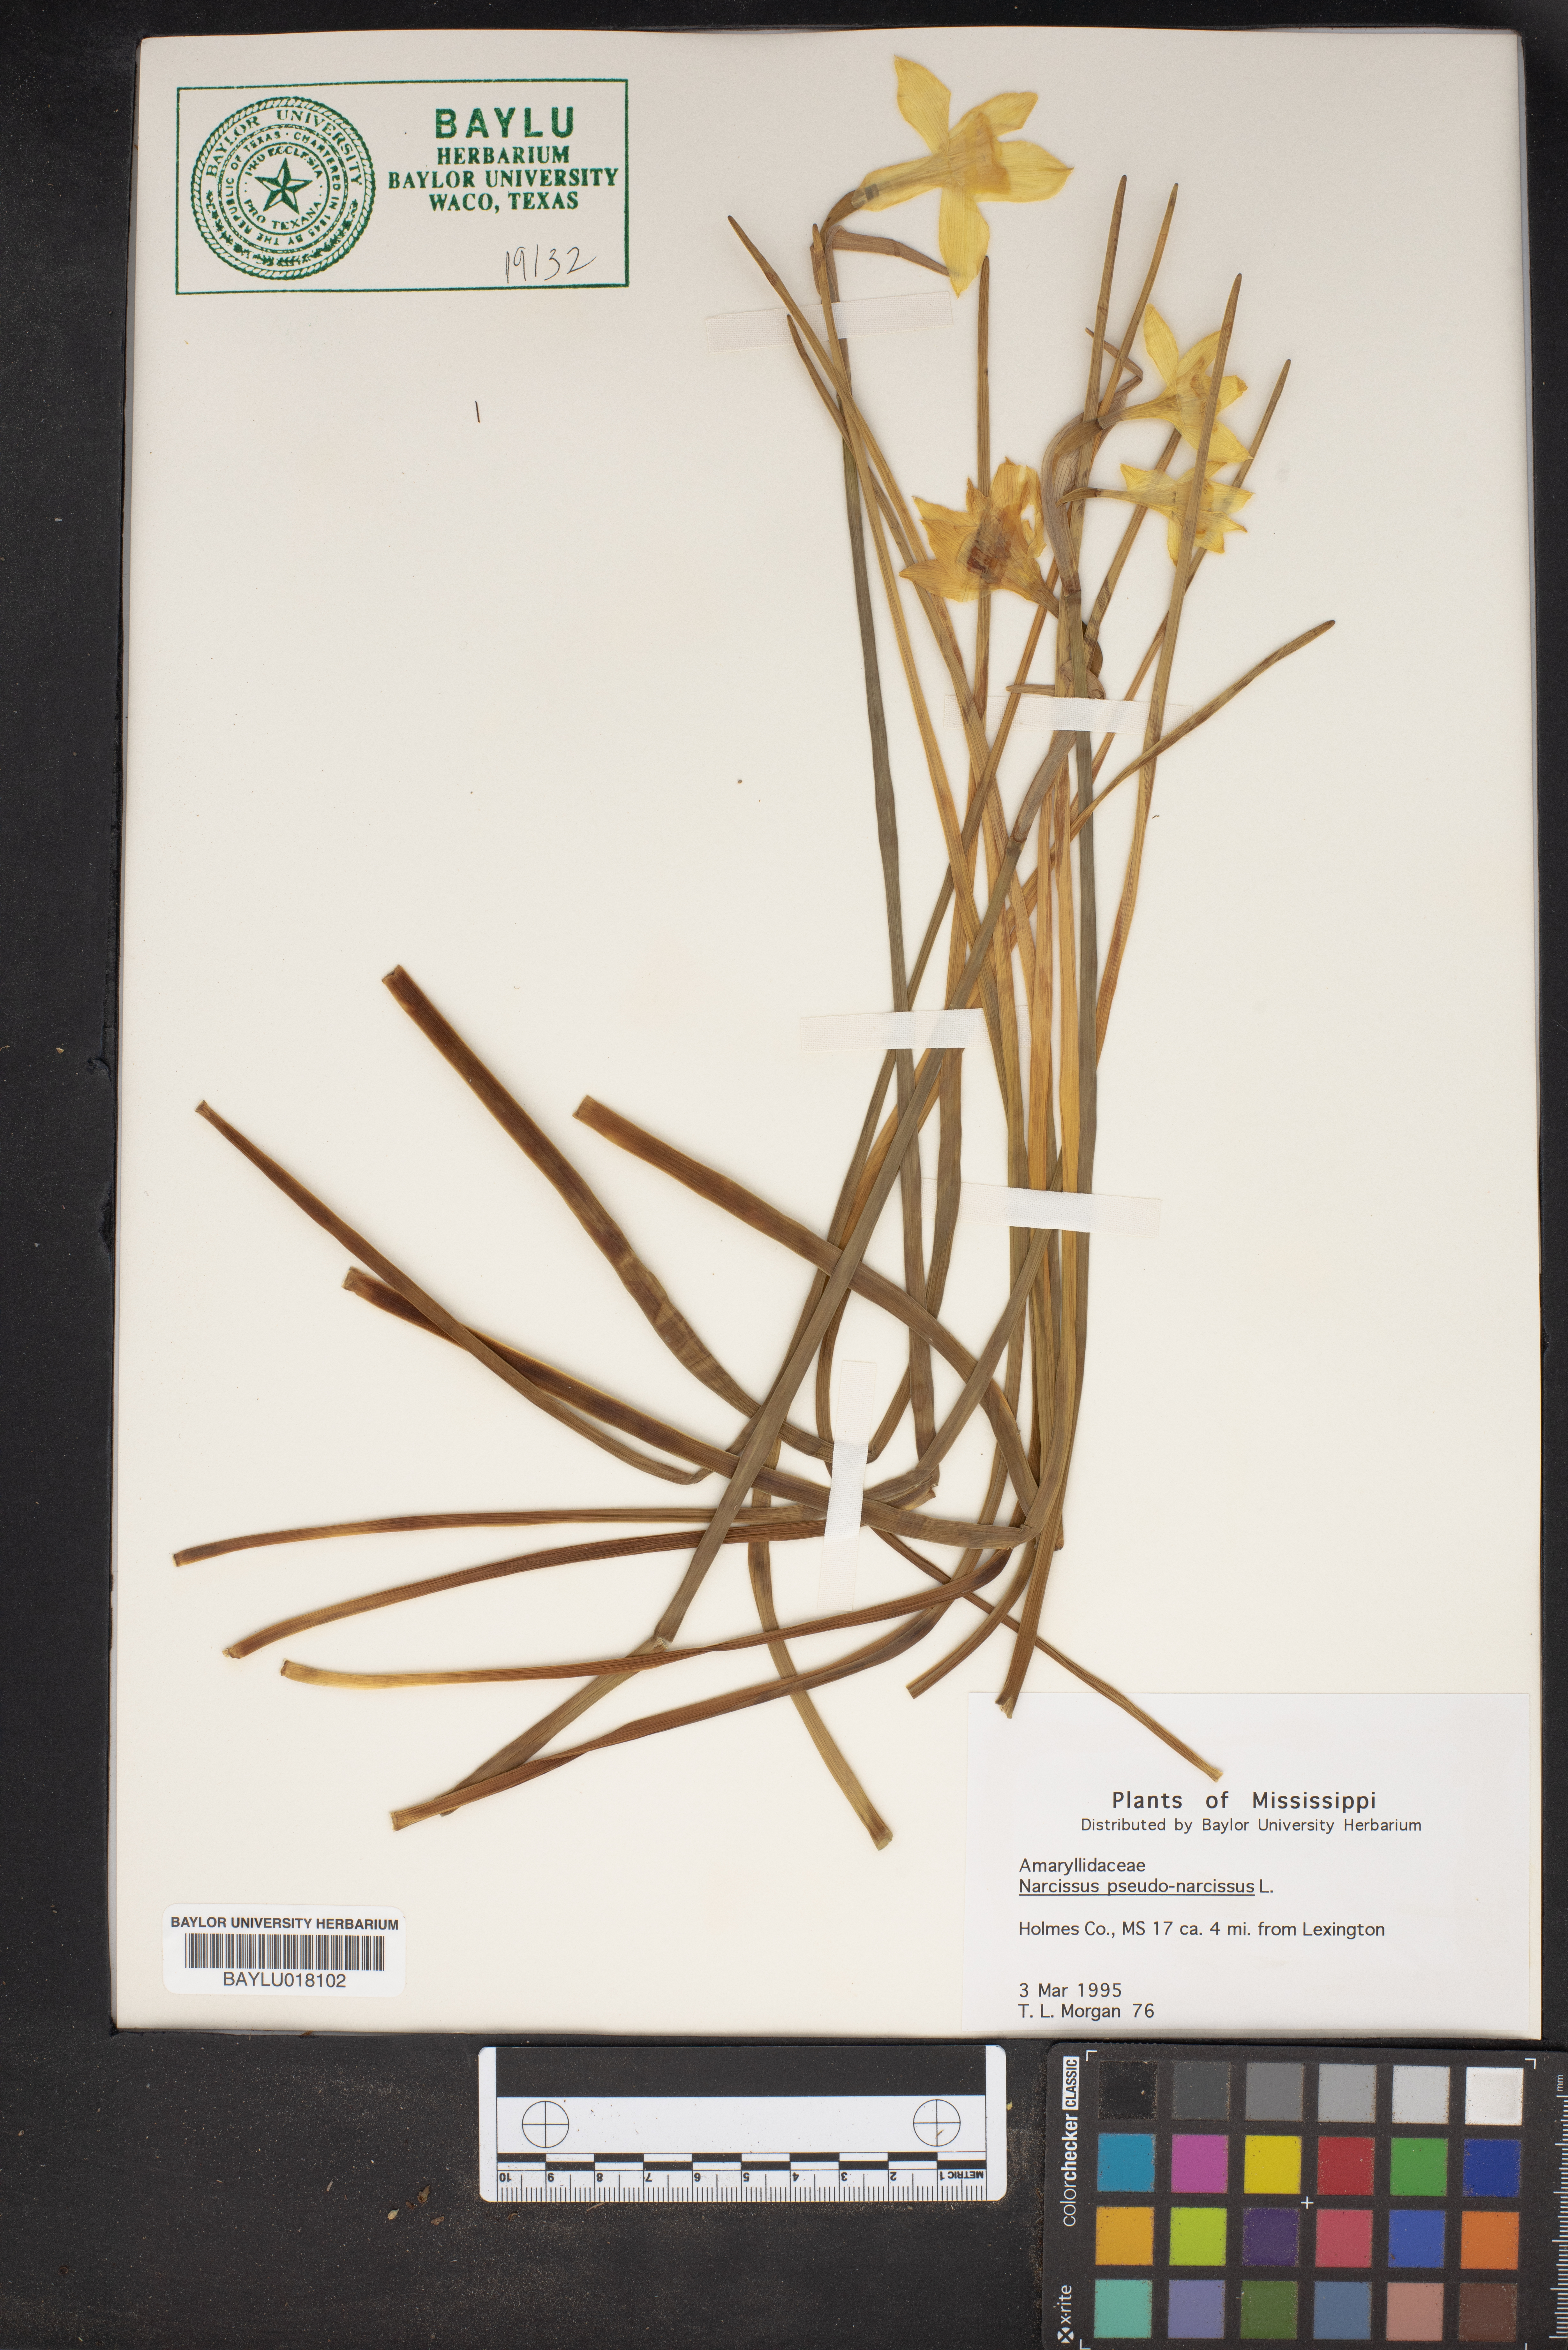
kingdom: Plantae
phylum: Tracheophyta
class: Liliopsida
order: Asparagales
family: Amaryllidaceae
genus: Narcissus
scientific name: Narcissus pseudonarcissus
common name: Daffodil
